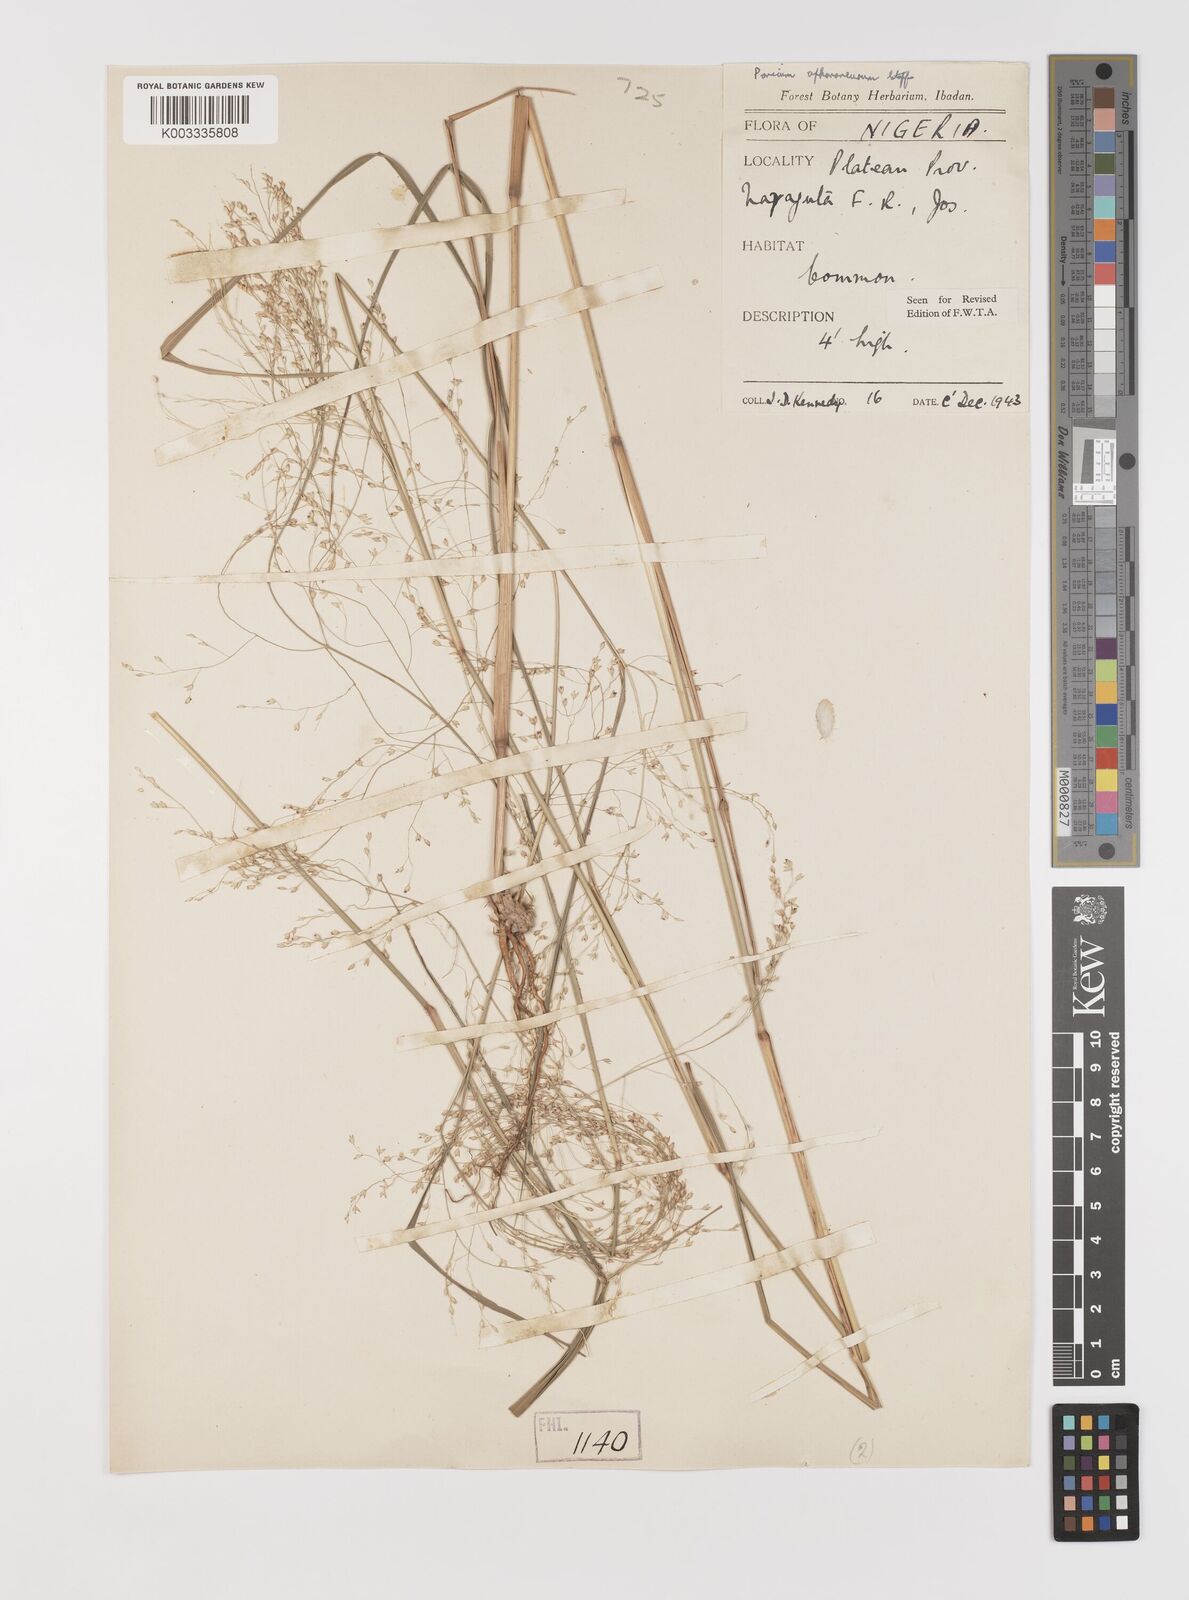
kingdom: Plantae
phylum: Tracheophyta
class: Liliopsida
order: Poales
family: Poaceae
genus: Panicum
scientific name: Panicum fluviicola
